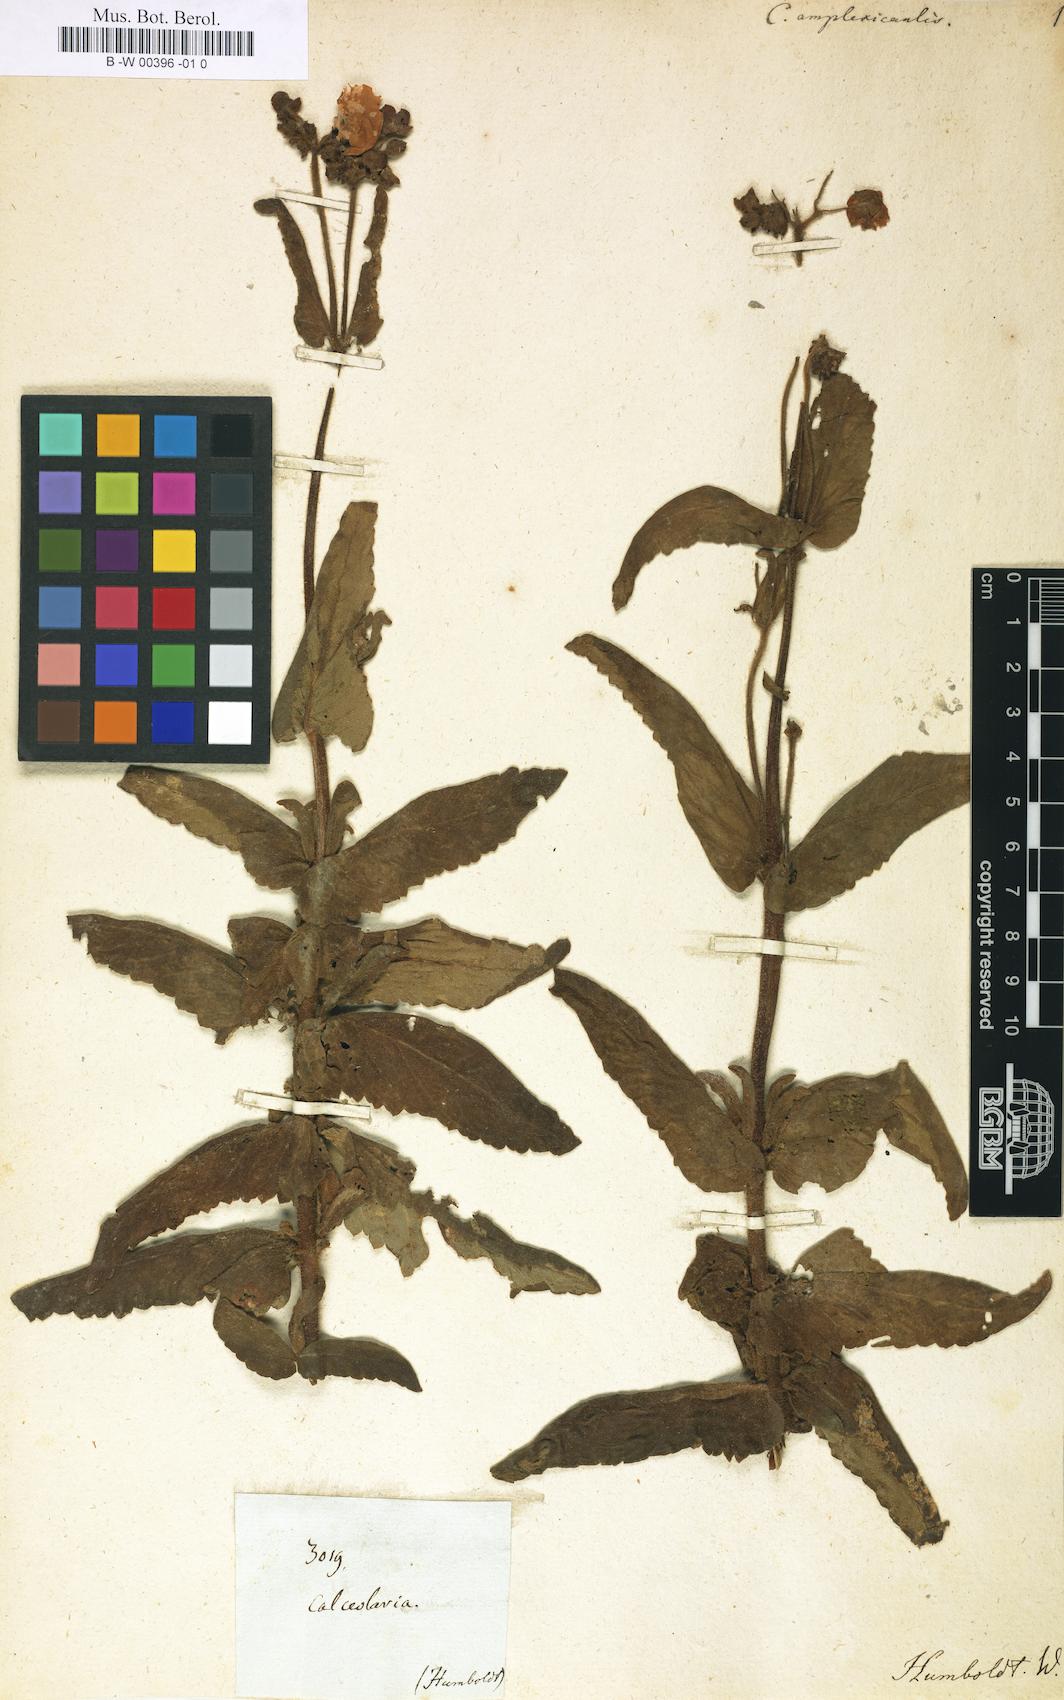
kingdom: Plantae
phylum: Tracheophyta
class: Magnoliopsida
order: Lamiales
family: Calceolariaceae
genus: Calceolaria
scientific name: Calceolaria crenata
